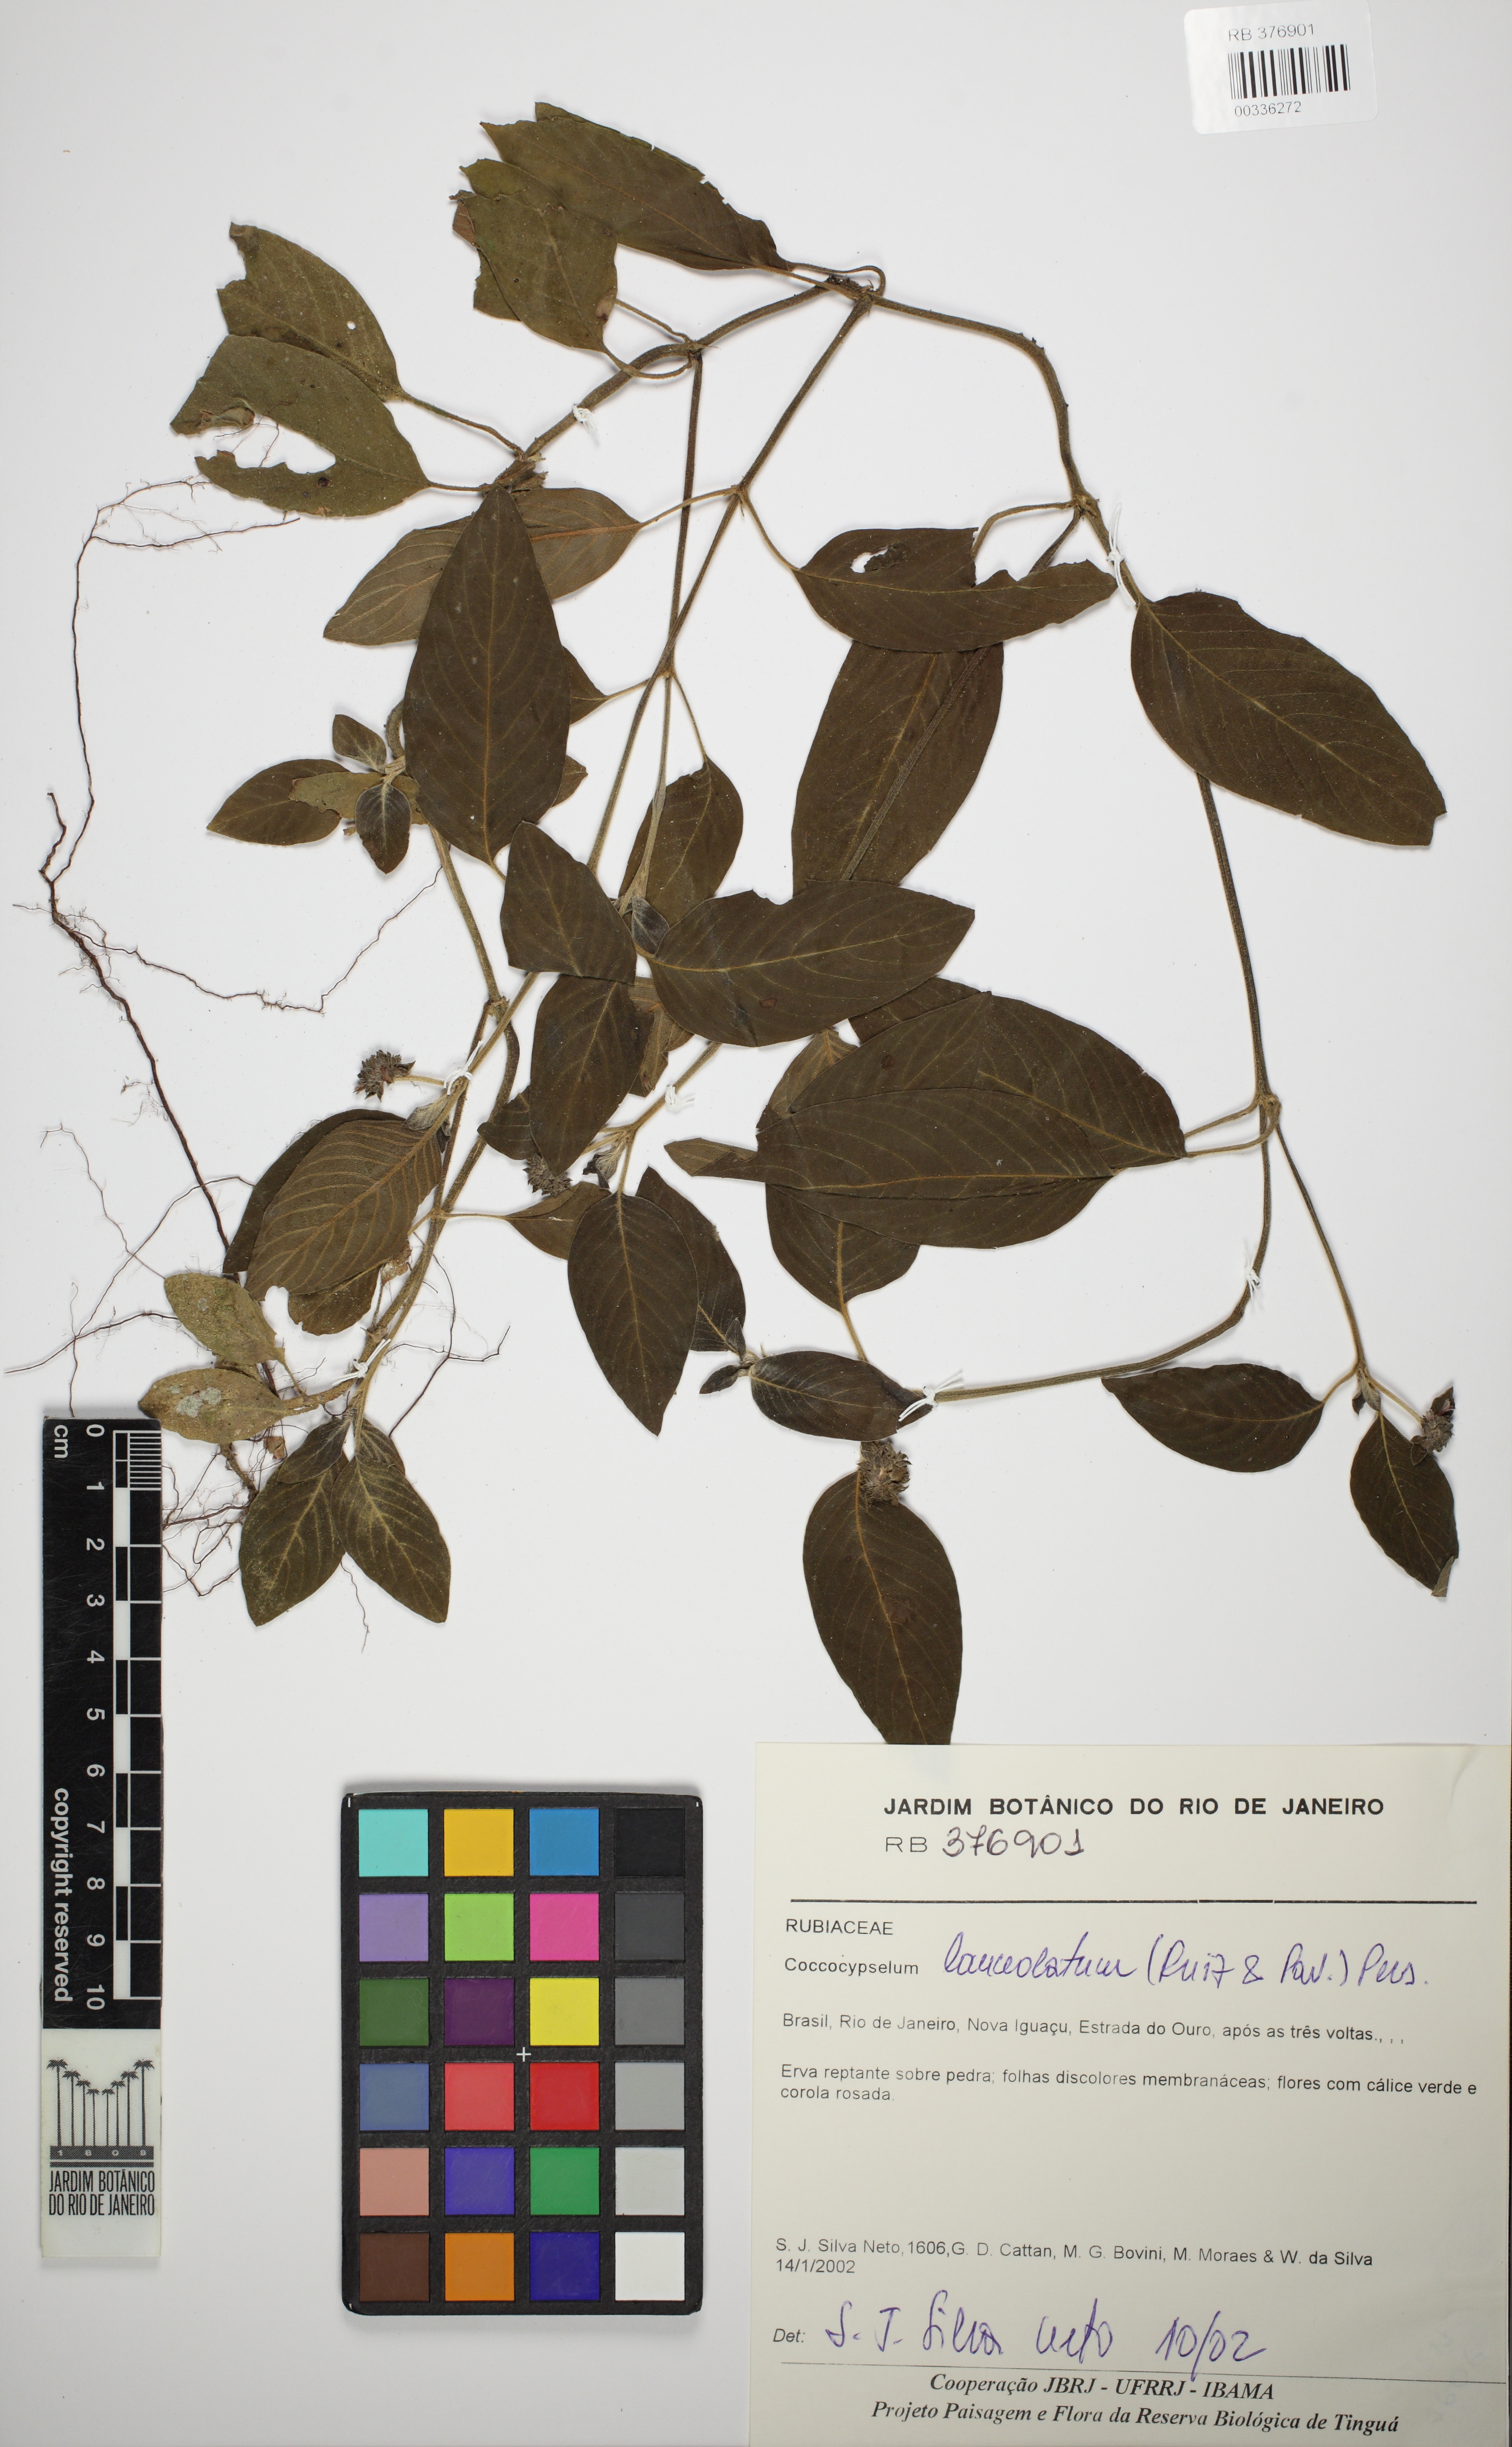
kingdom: Plantae
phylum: Tracheophyta
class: Magnoliopsida
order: Gentianales
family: Rubiaceae
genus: Coccocypselum
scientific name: Coccocypselum lanceolatum
